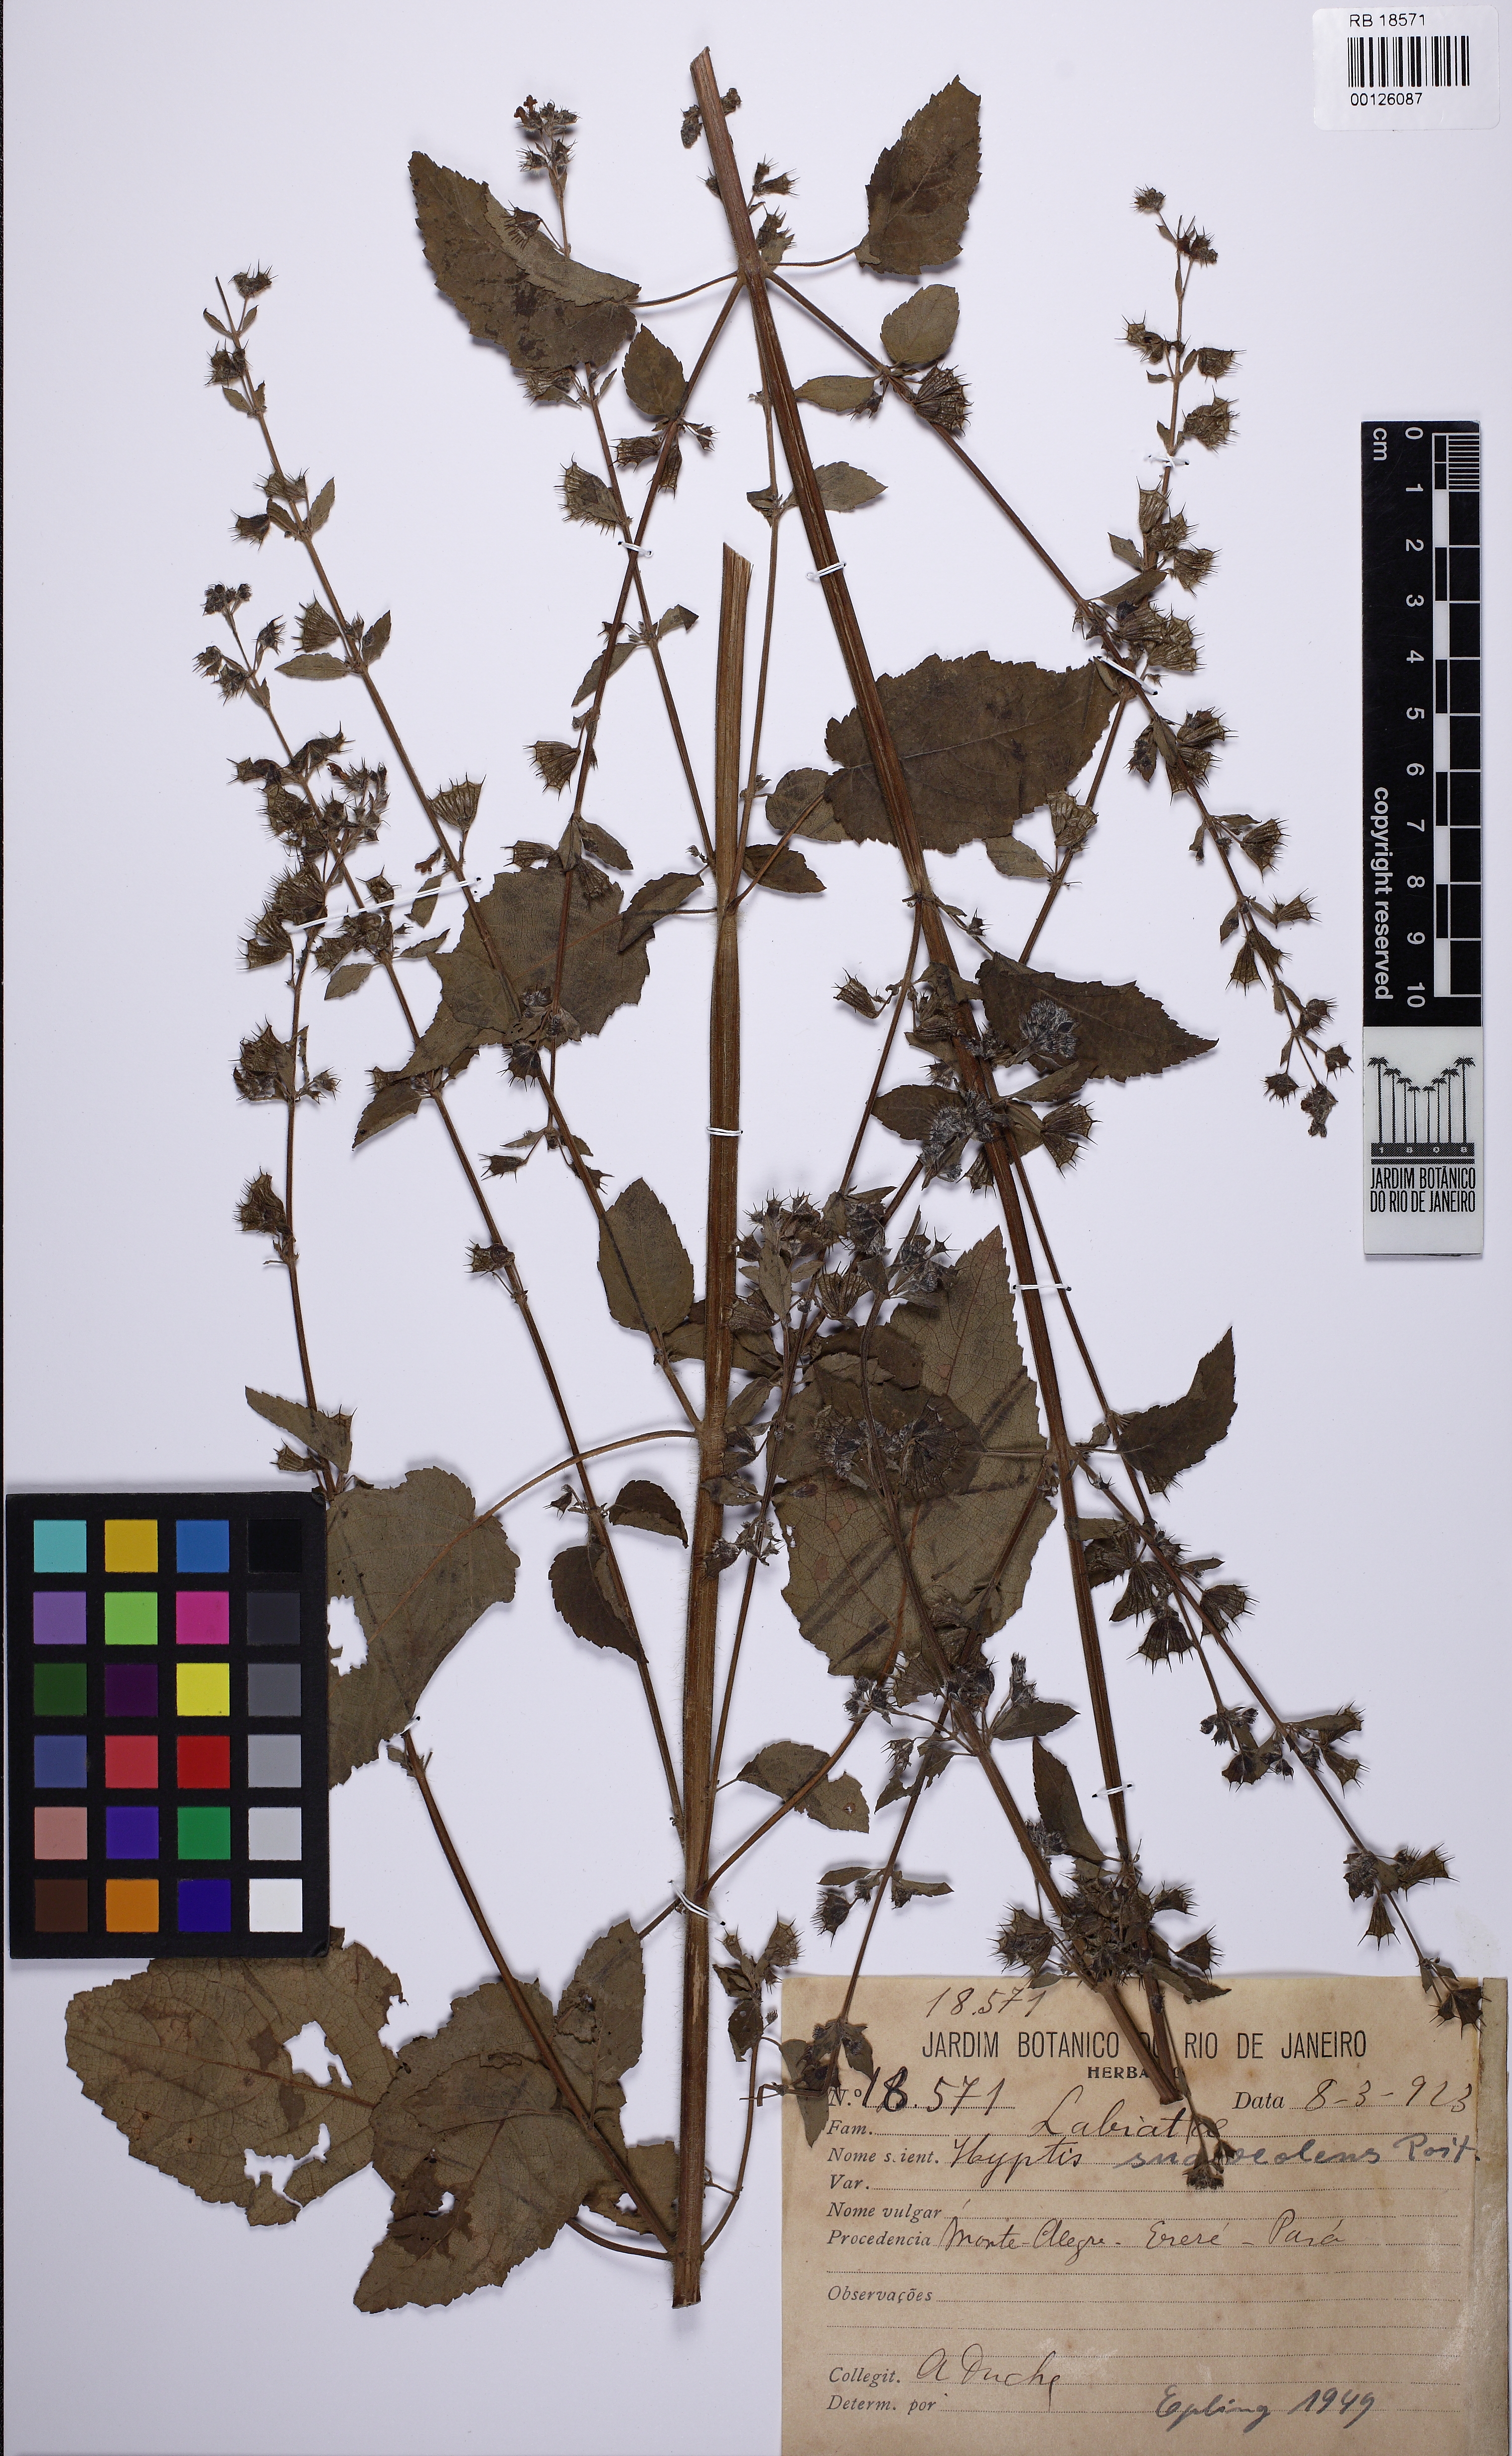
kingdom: Plantae
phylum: Tracheophyta
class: Magnoliopsida
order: Lamiales
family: Lamiaceae
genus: Mesosphaerum
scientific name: Mesosphaerum suaveolens
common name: Pignut
